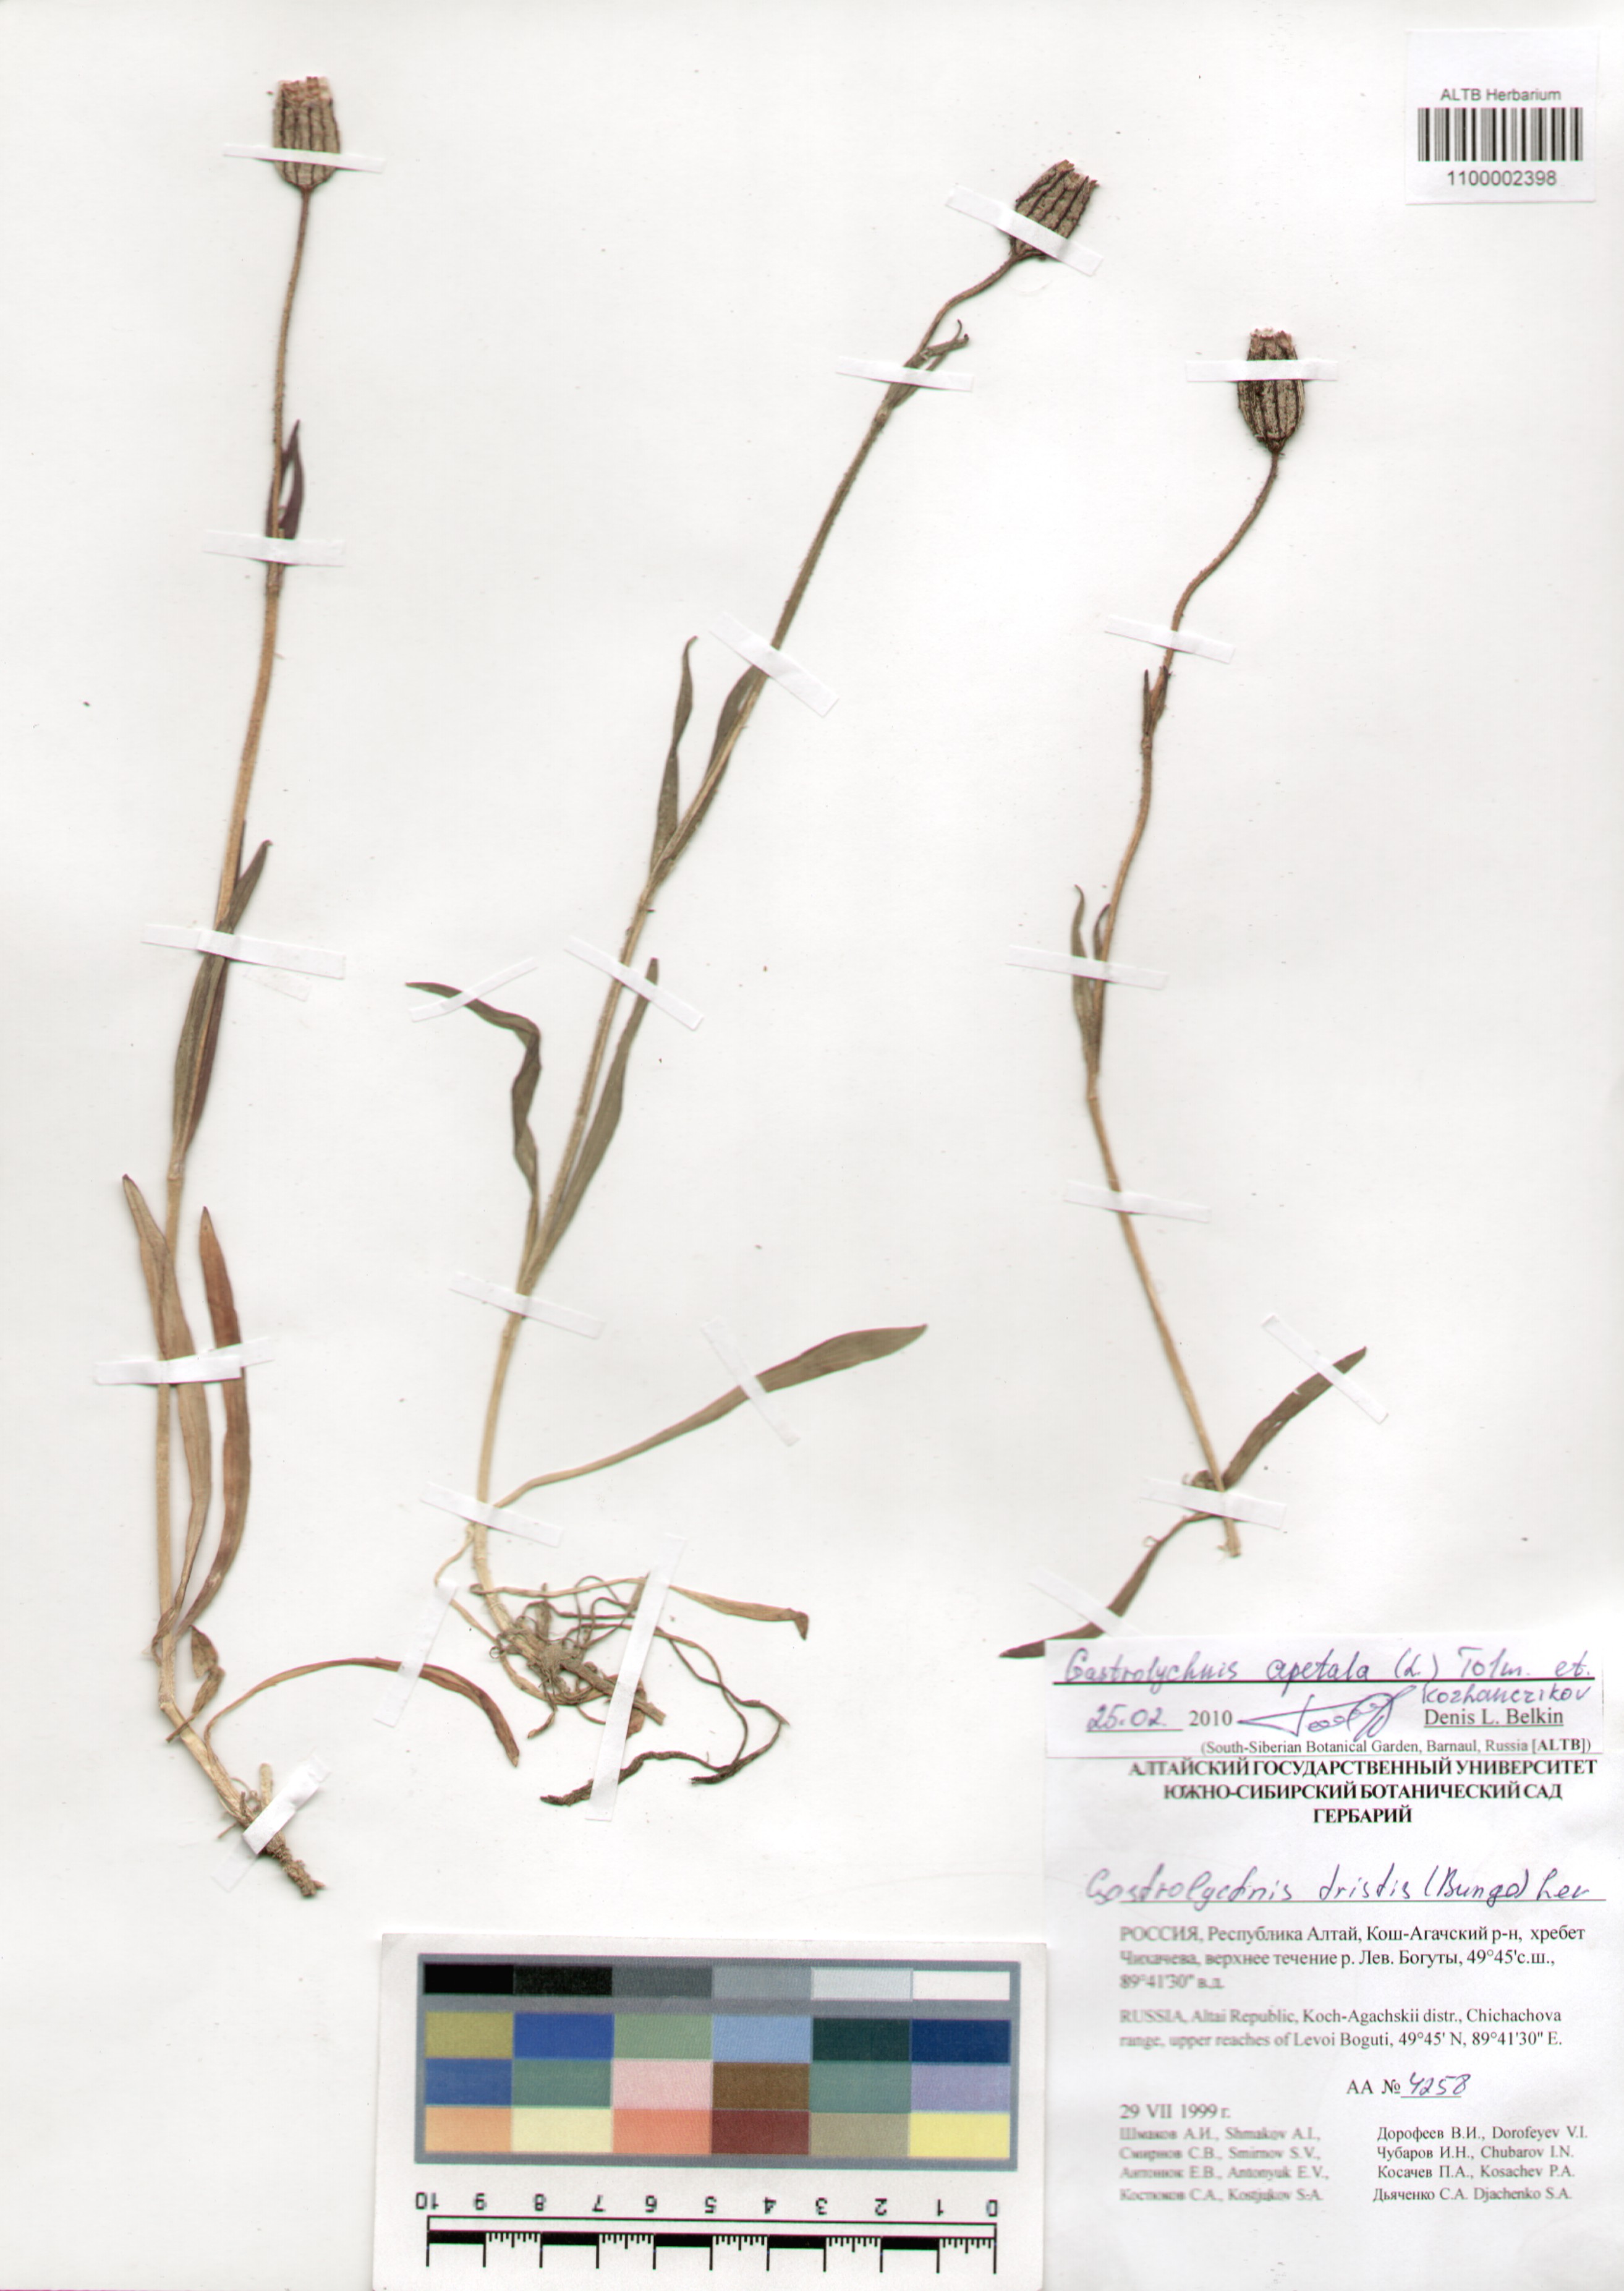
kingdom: Plantae
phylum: Tracheophyta
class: Magnoliopsida
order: Caryophyllales
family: Caryophyllaceae
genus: Silene
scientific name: Silene wahlbergella
